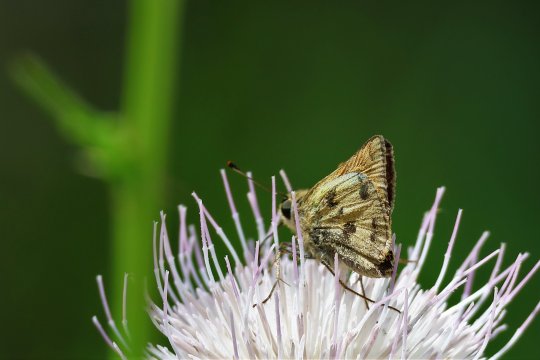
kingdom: Animalia
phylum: Arthropoda
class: Insecta
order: Lepidoptera
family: Hesperiidae
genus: Polites
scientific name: Polites vibex
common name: Whirlabout
